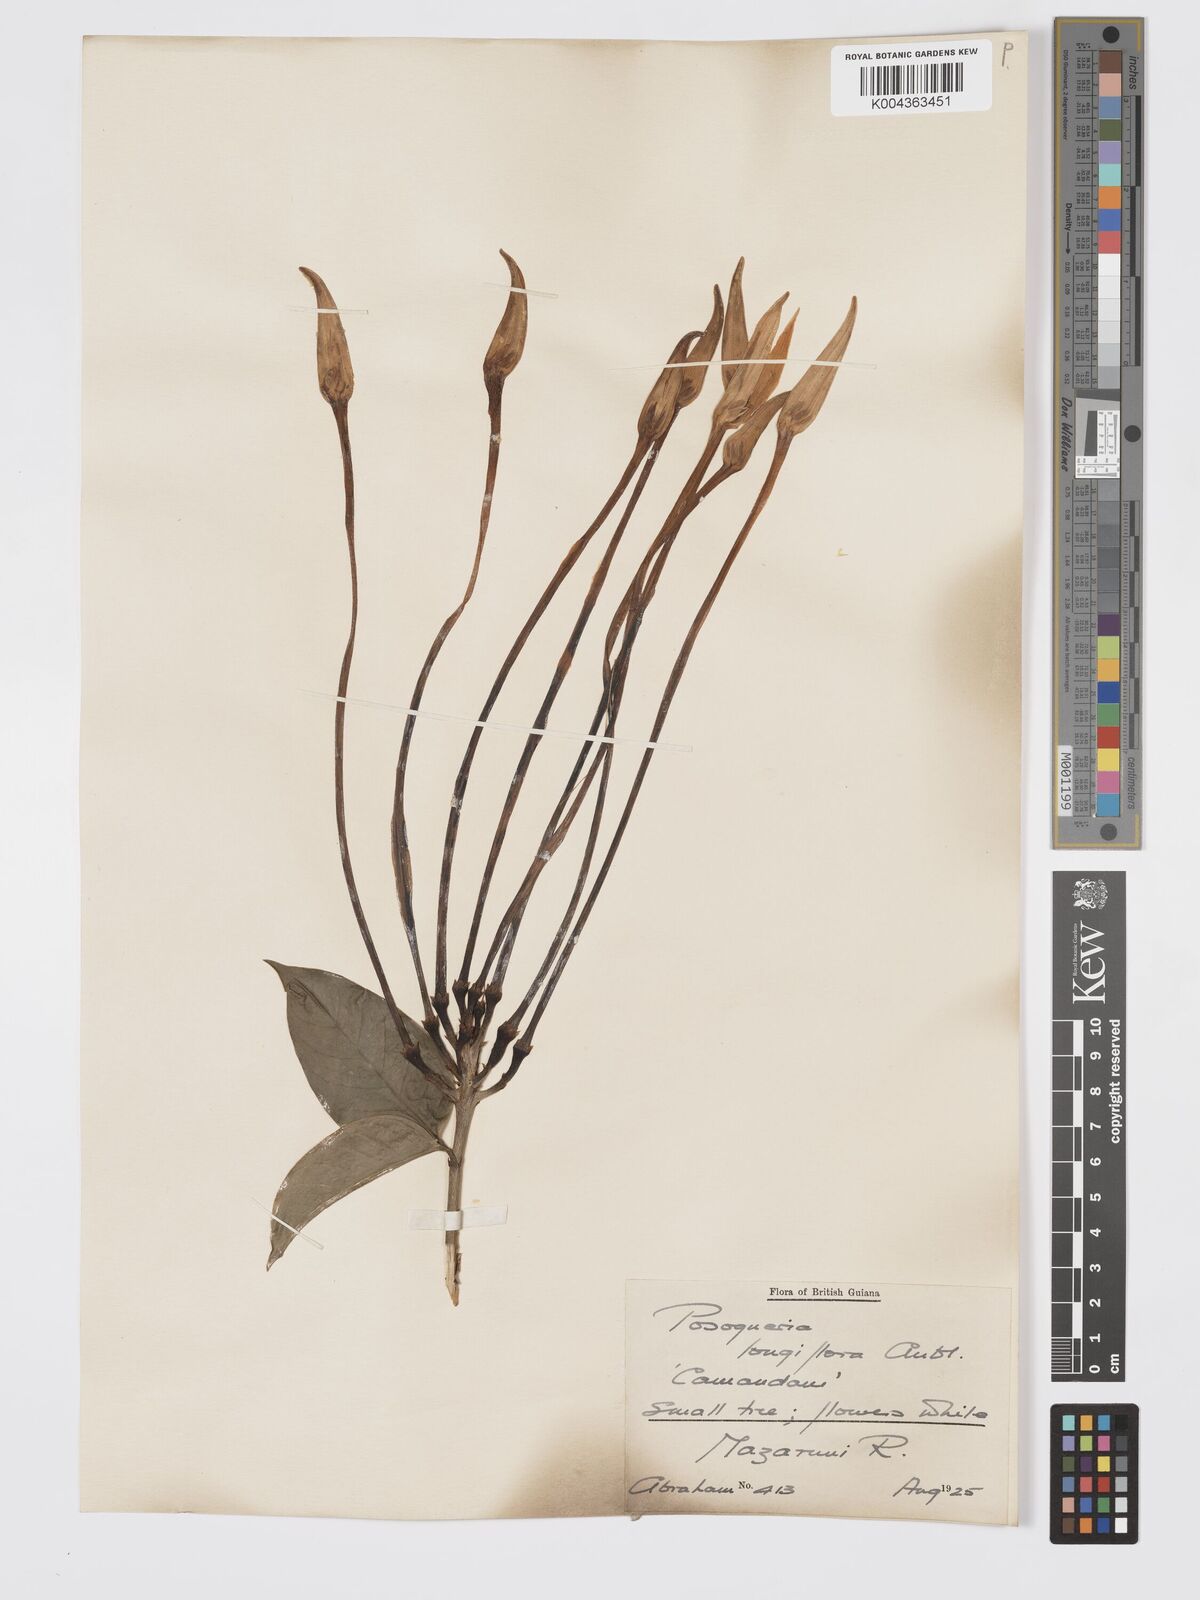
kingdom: Plantae
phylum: Tracheophyta
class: Magnoliopsida
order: Gentianales
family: Rubiaceae
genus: Posoqueria
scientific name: Posoqueria
